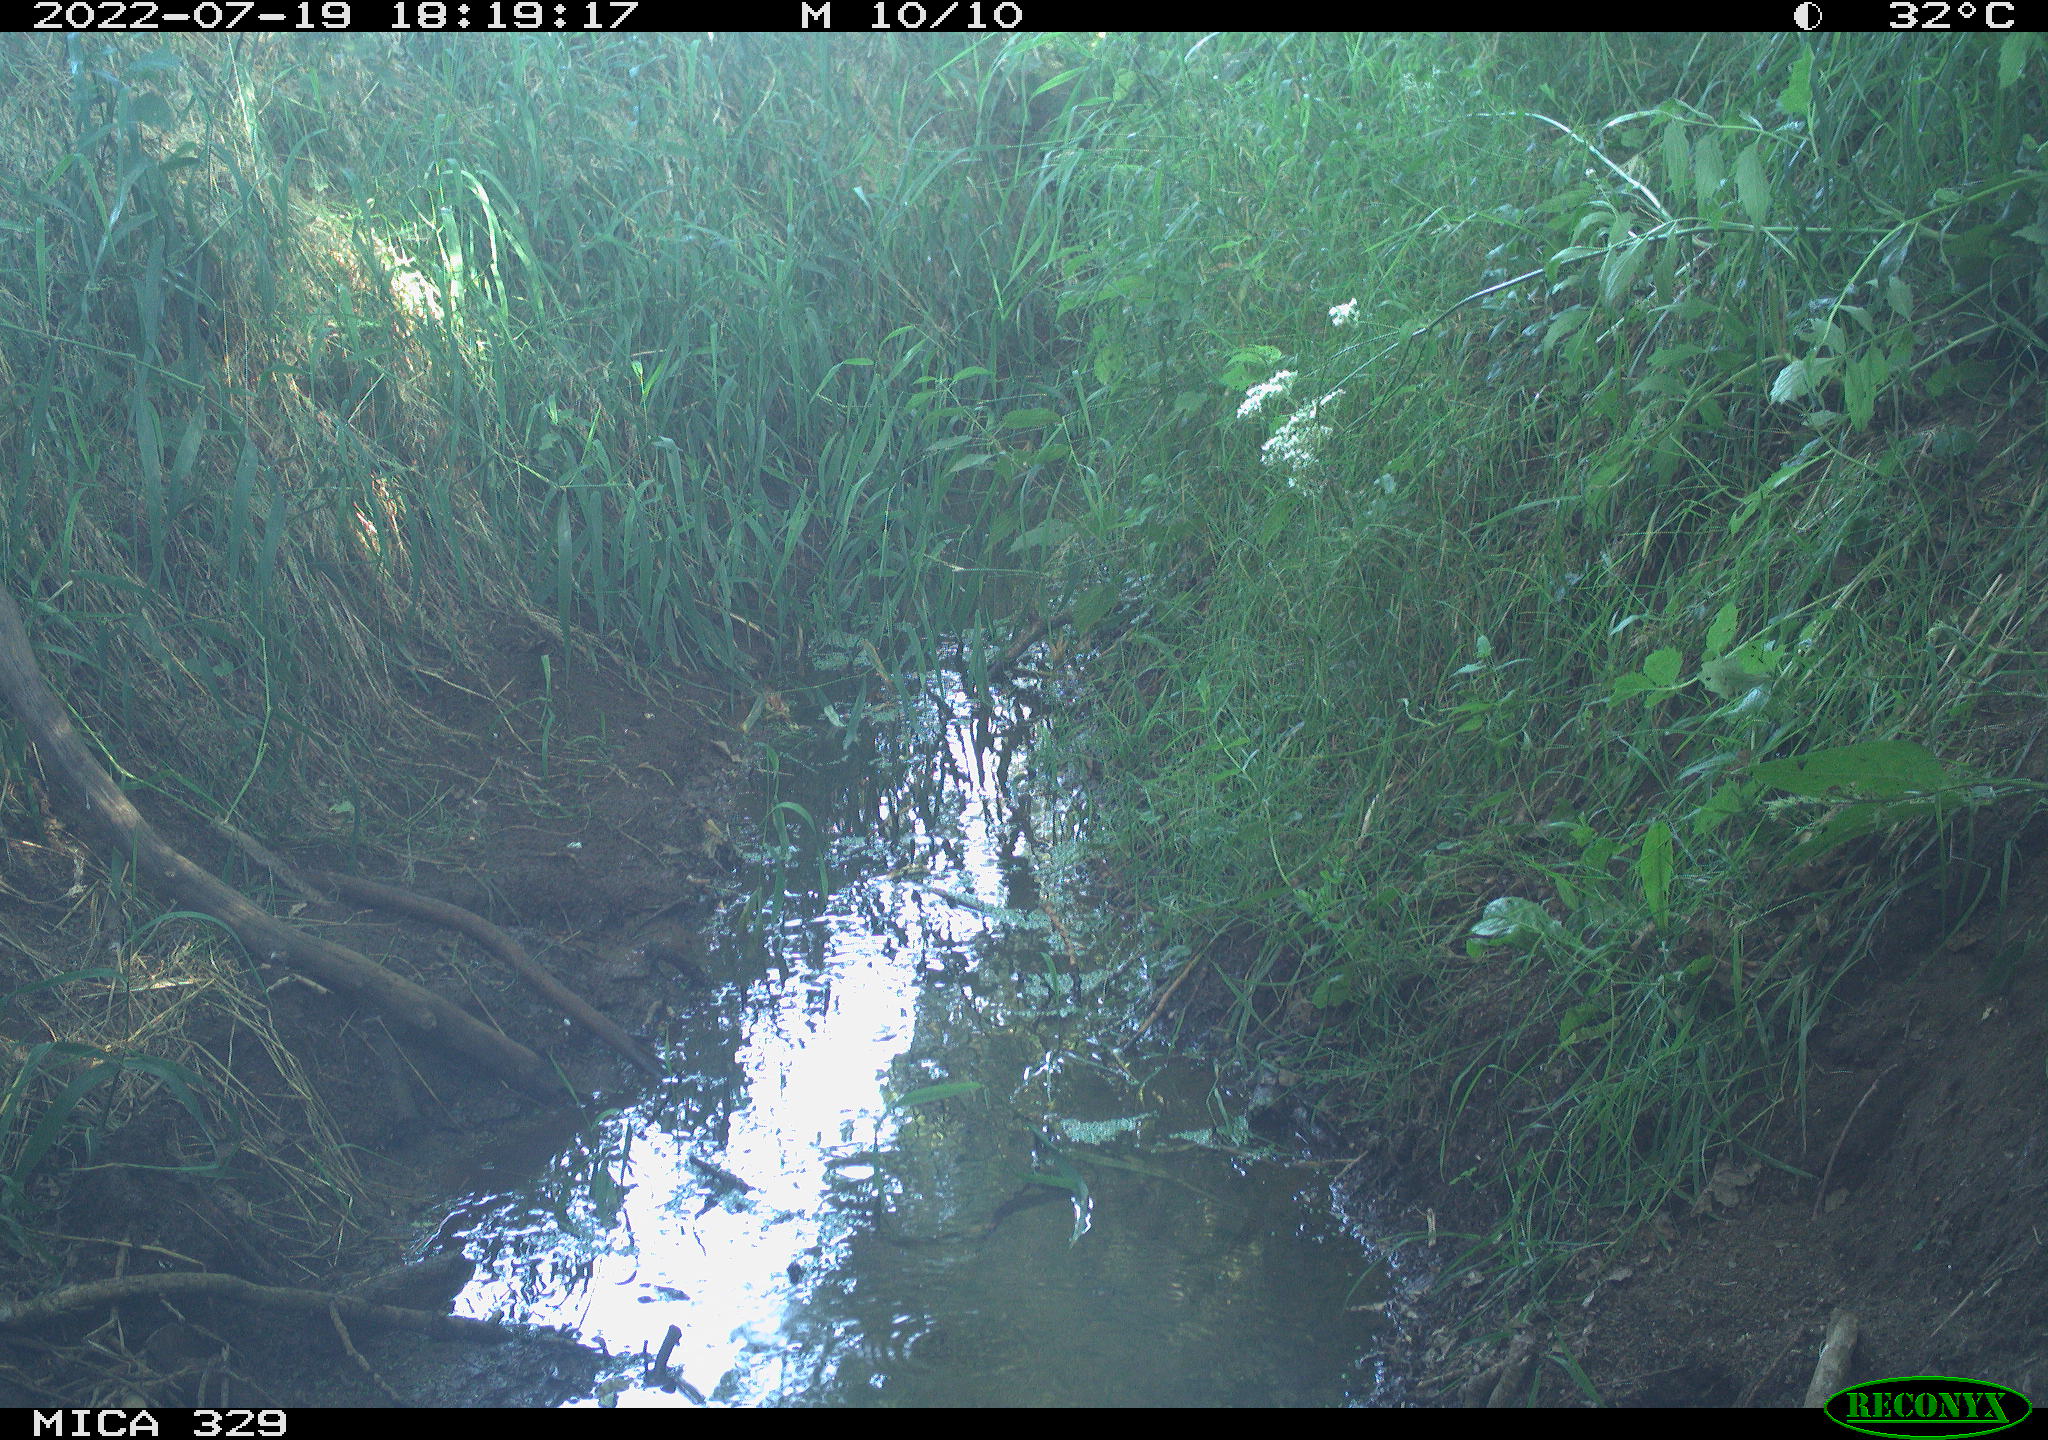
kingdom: Animalia
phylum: Chordata
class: Mammalia
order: Rodentia
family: Sciuridae
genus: Sciurus
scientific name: Sciurus vulgaris
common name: Eurasian red squirrel
